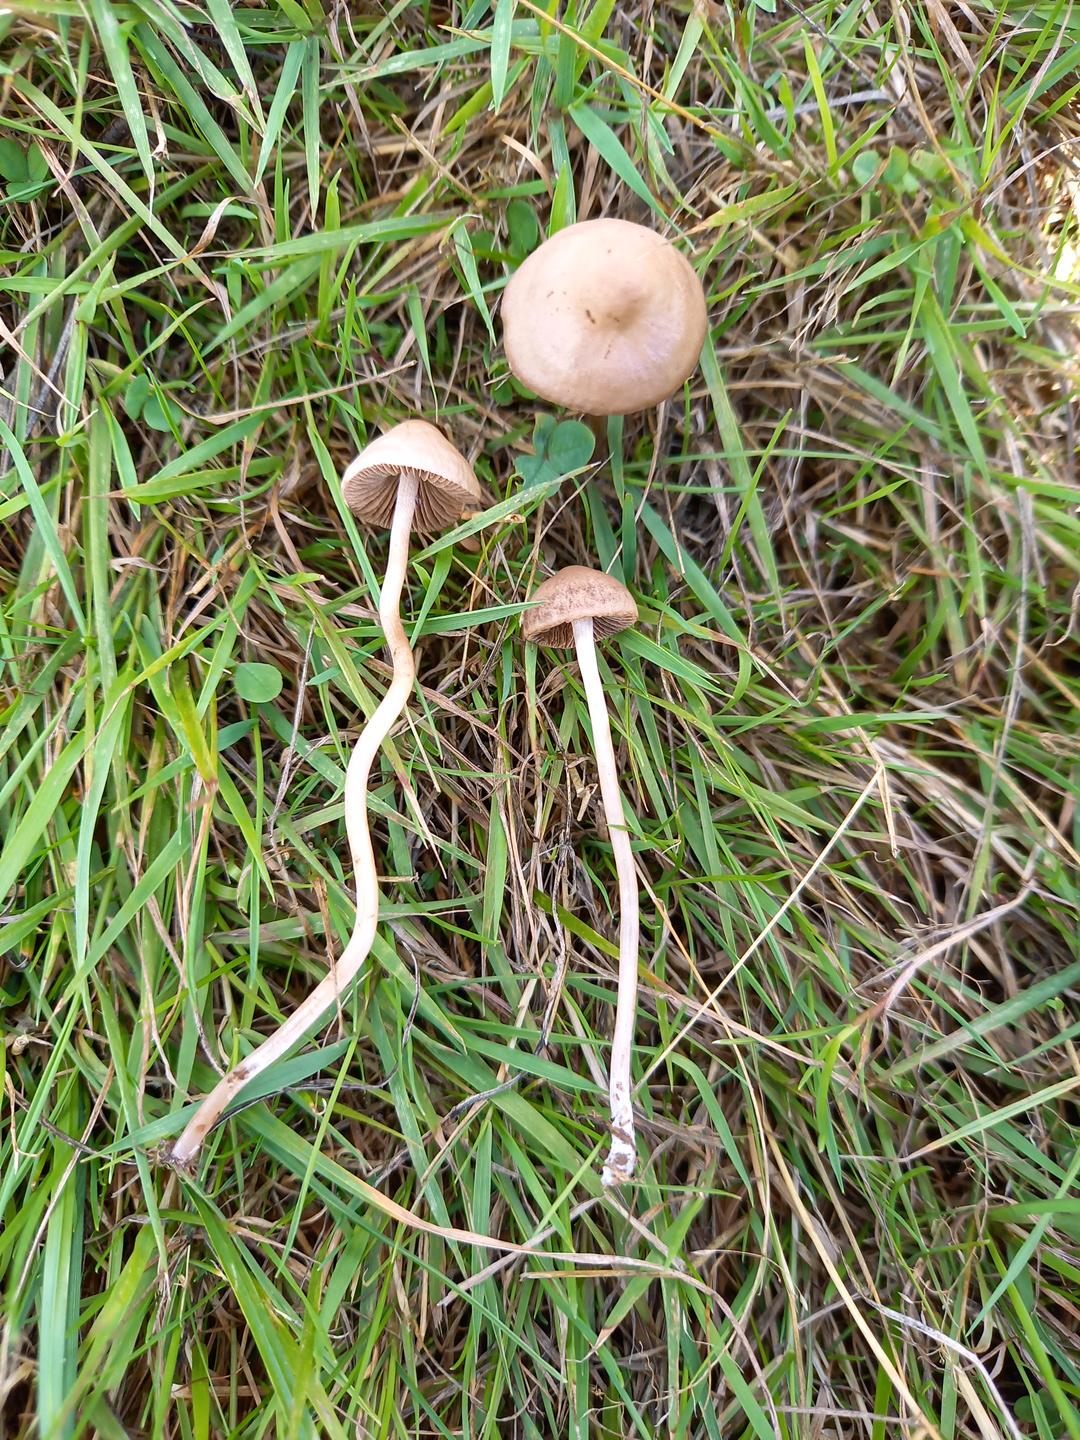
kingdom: Fungi
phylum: Basidiomycota
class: Agaricomycetes
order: Agaricales
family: Bolbitiaceae
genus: Panaeolina
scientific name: Panaeolina foenisecii
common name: høslætsvamp
